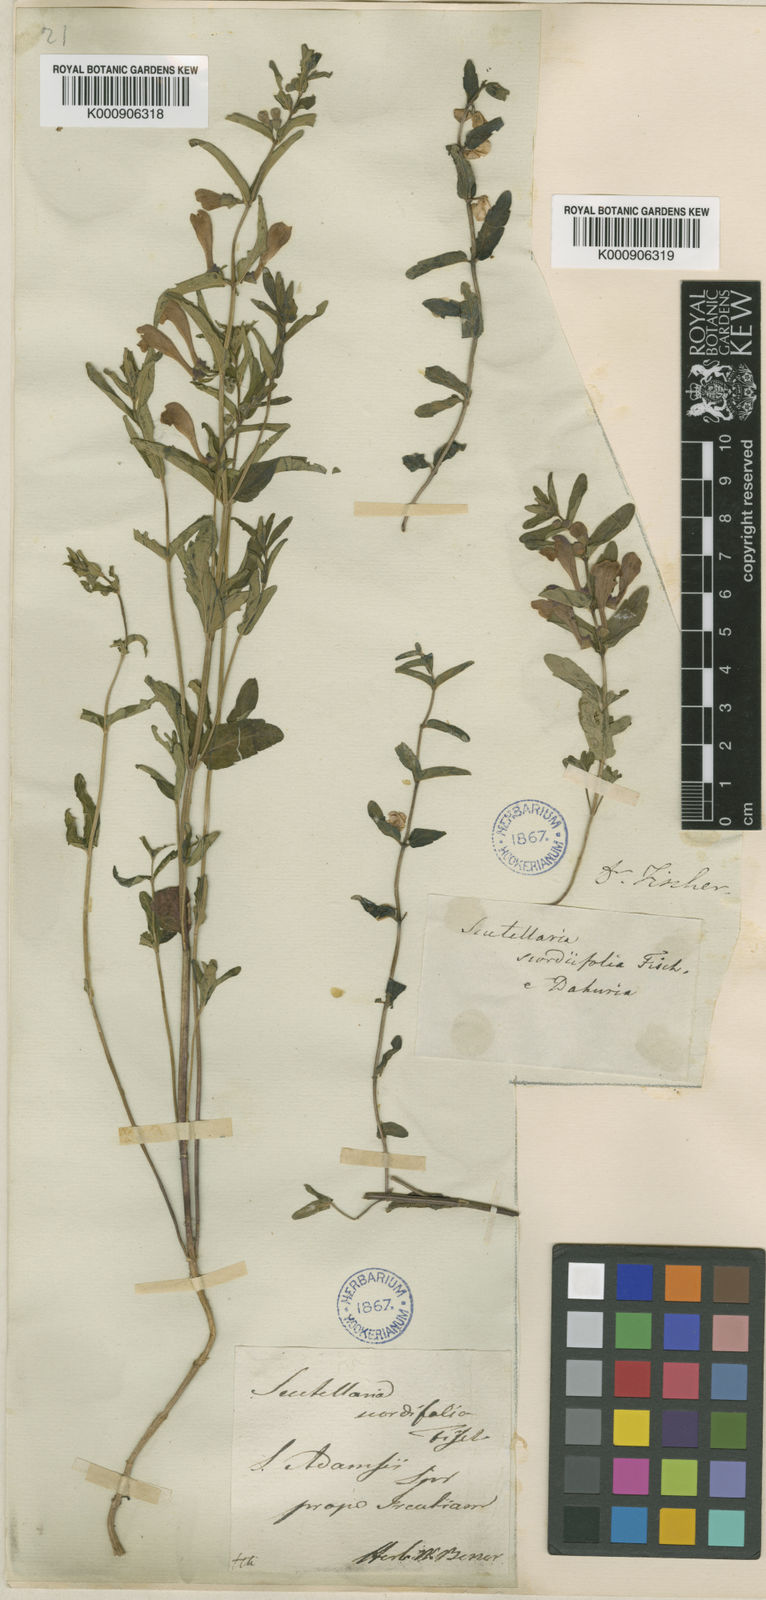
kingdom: Plantae
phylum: Tracheophyta
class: Magnoliopsida
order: Lamiales
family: Lamiaceae
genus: Scutellaria
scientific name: Scutellaria scordiifolia
